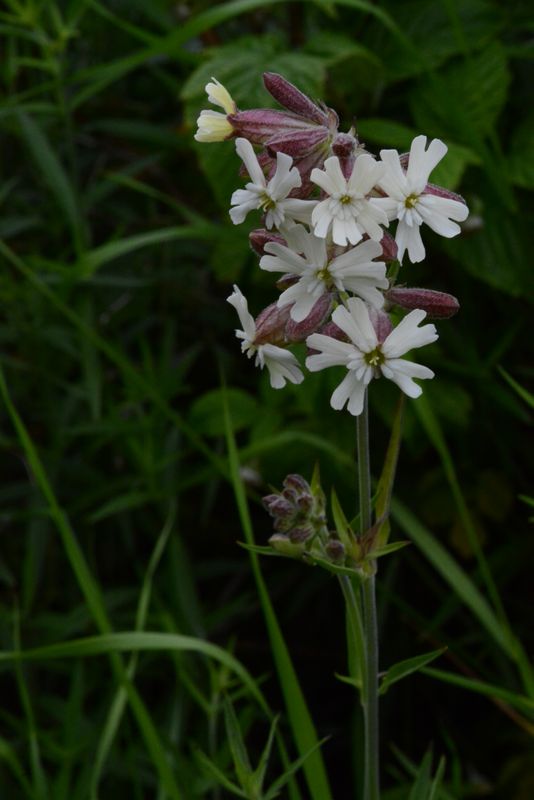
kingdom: Plantae
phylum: Tracheophyta
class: Magnoliopsida
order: Caryophyllales
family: Caryophyllaceae
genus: Silene
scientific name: Silene repens
